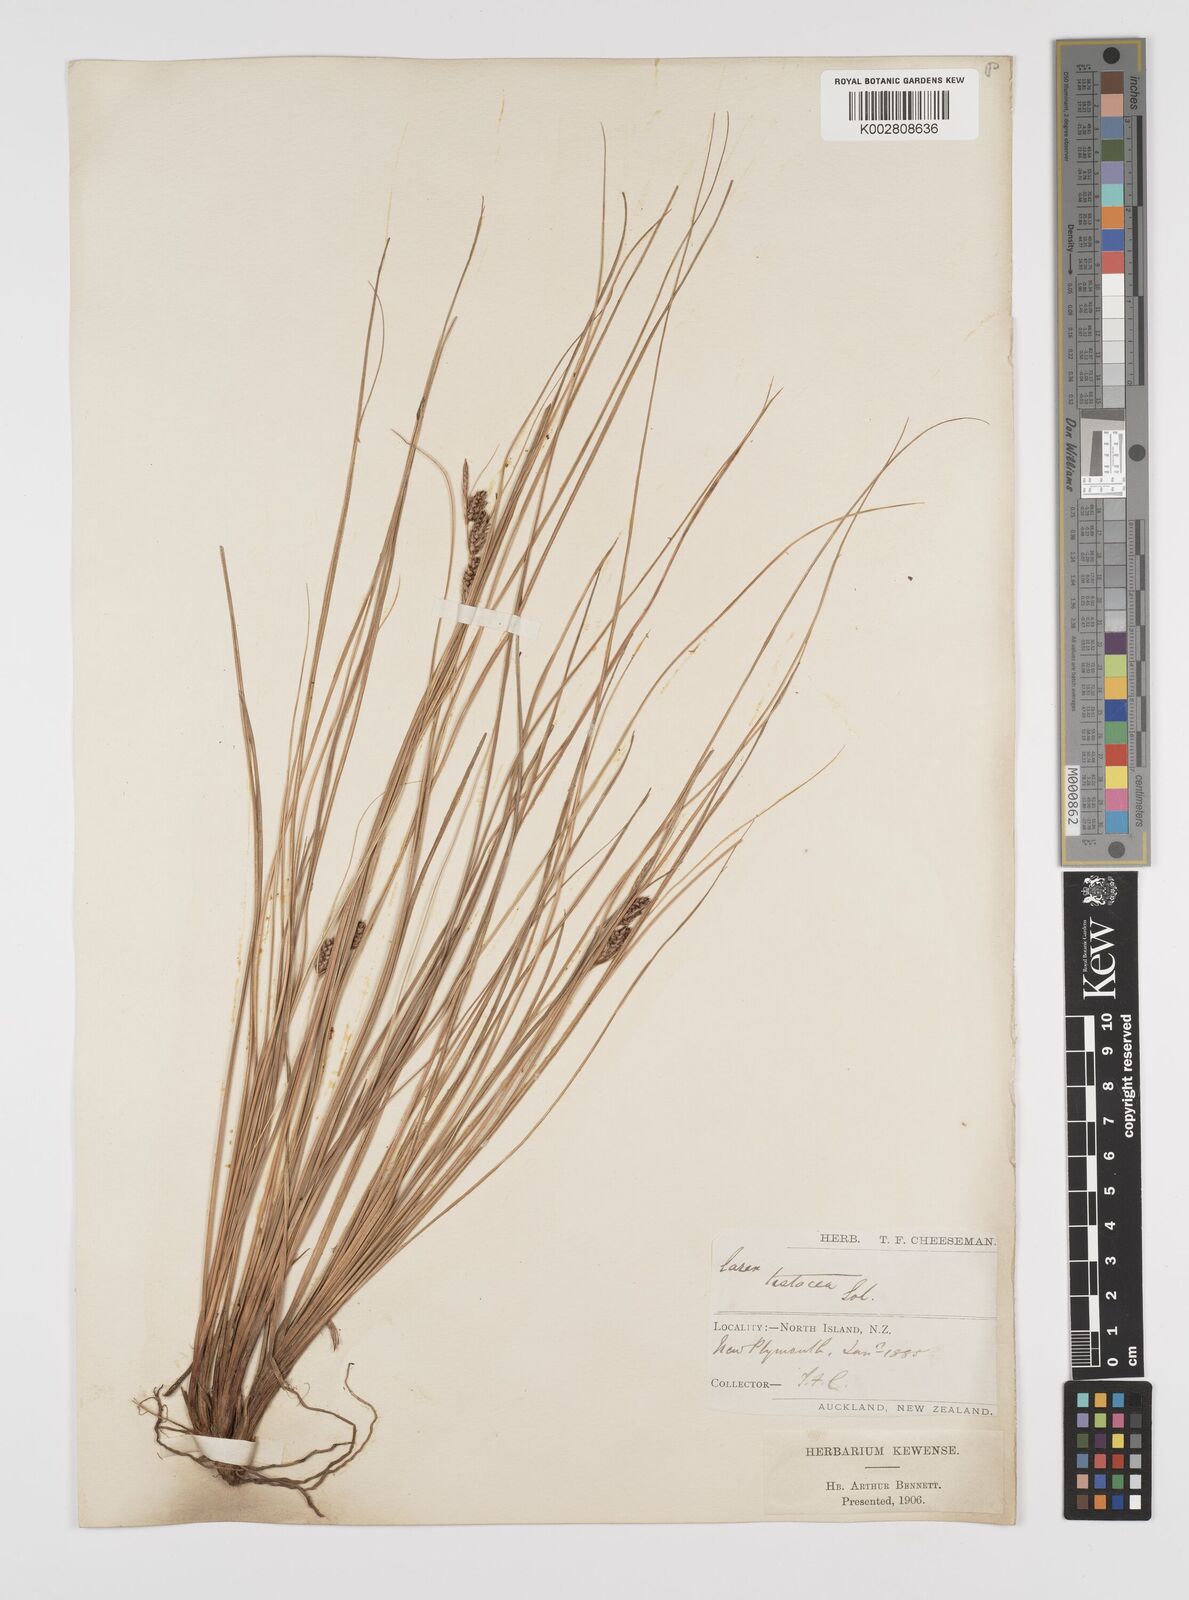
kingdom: Plantae
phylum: Tracheophyta
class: Liliopsida
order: Poales
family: Cyperaceae
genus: Carex
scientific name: Carex testacea
